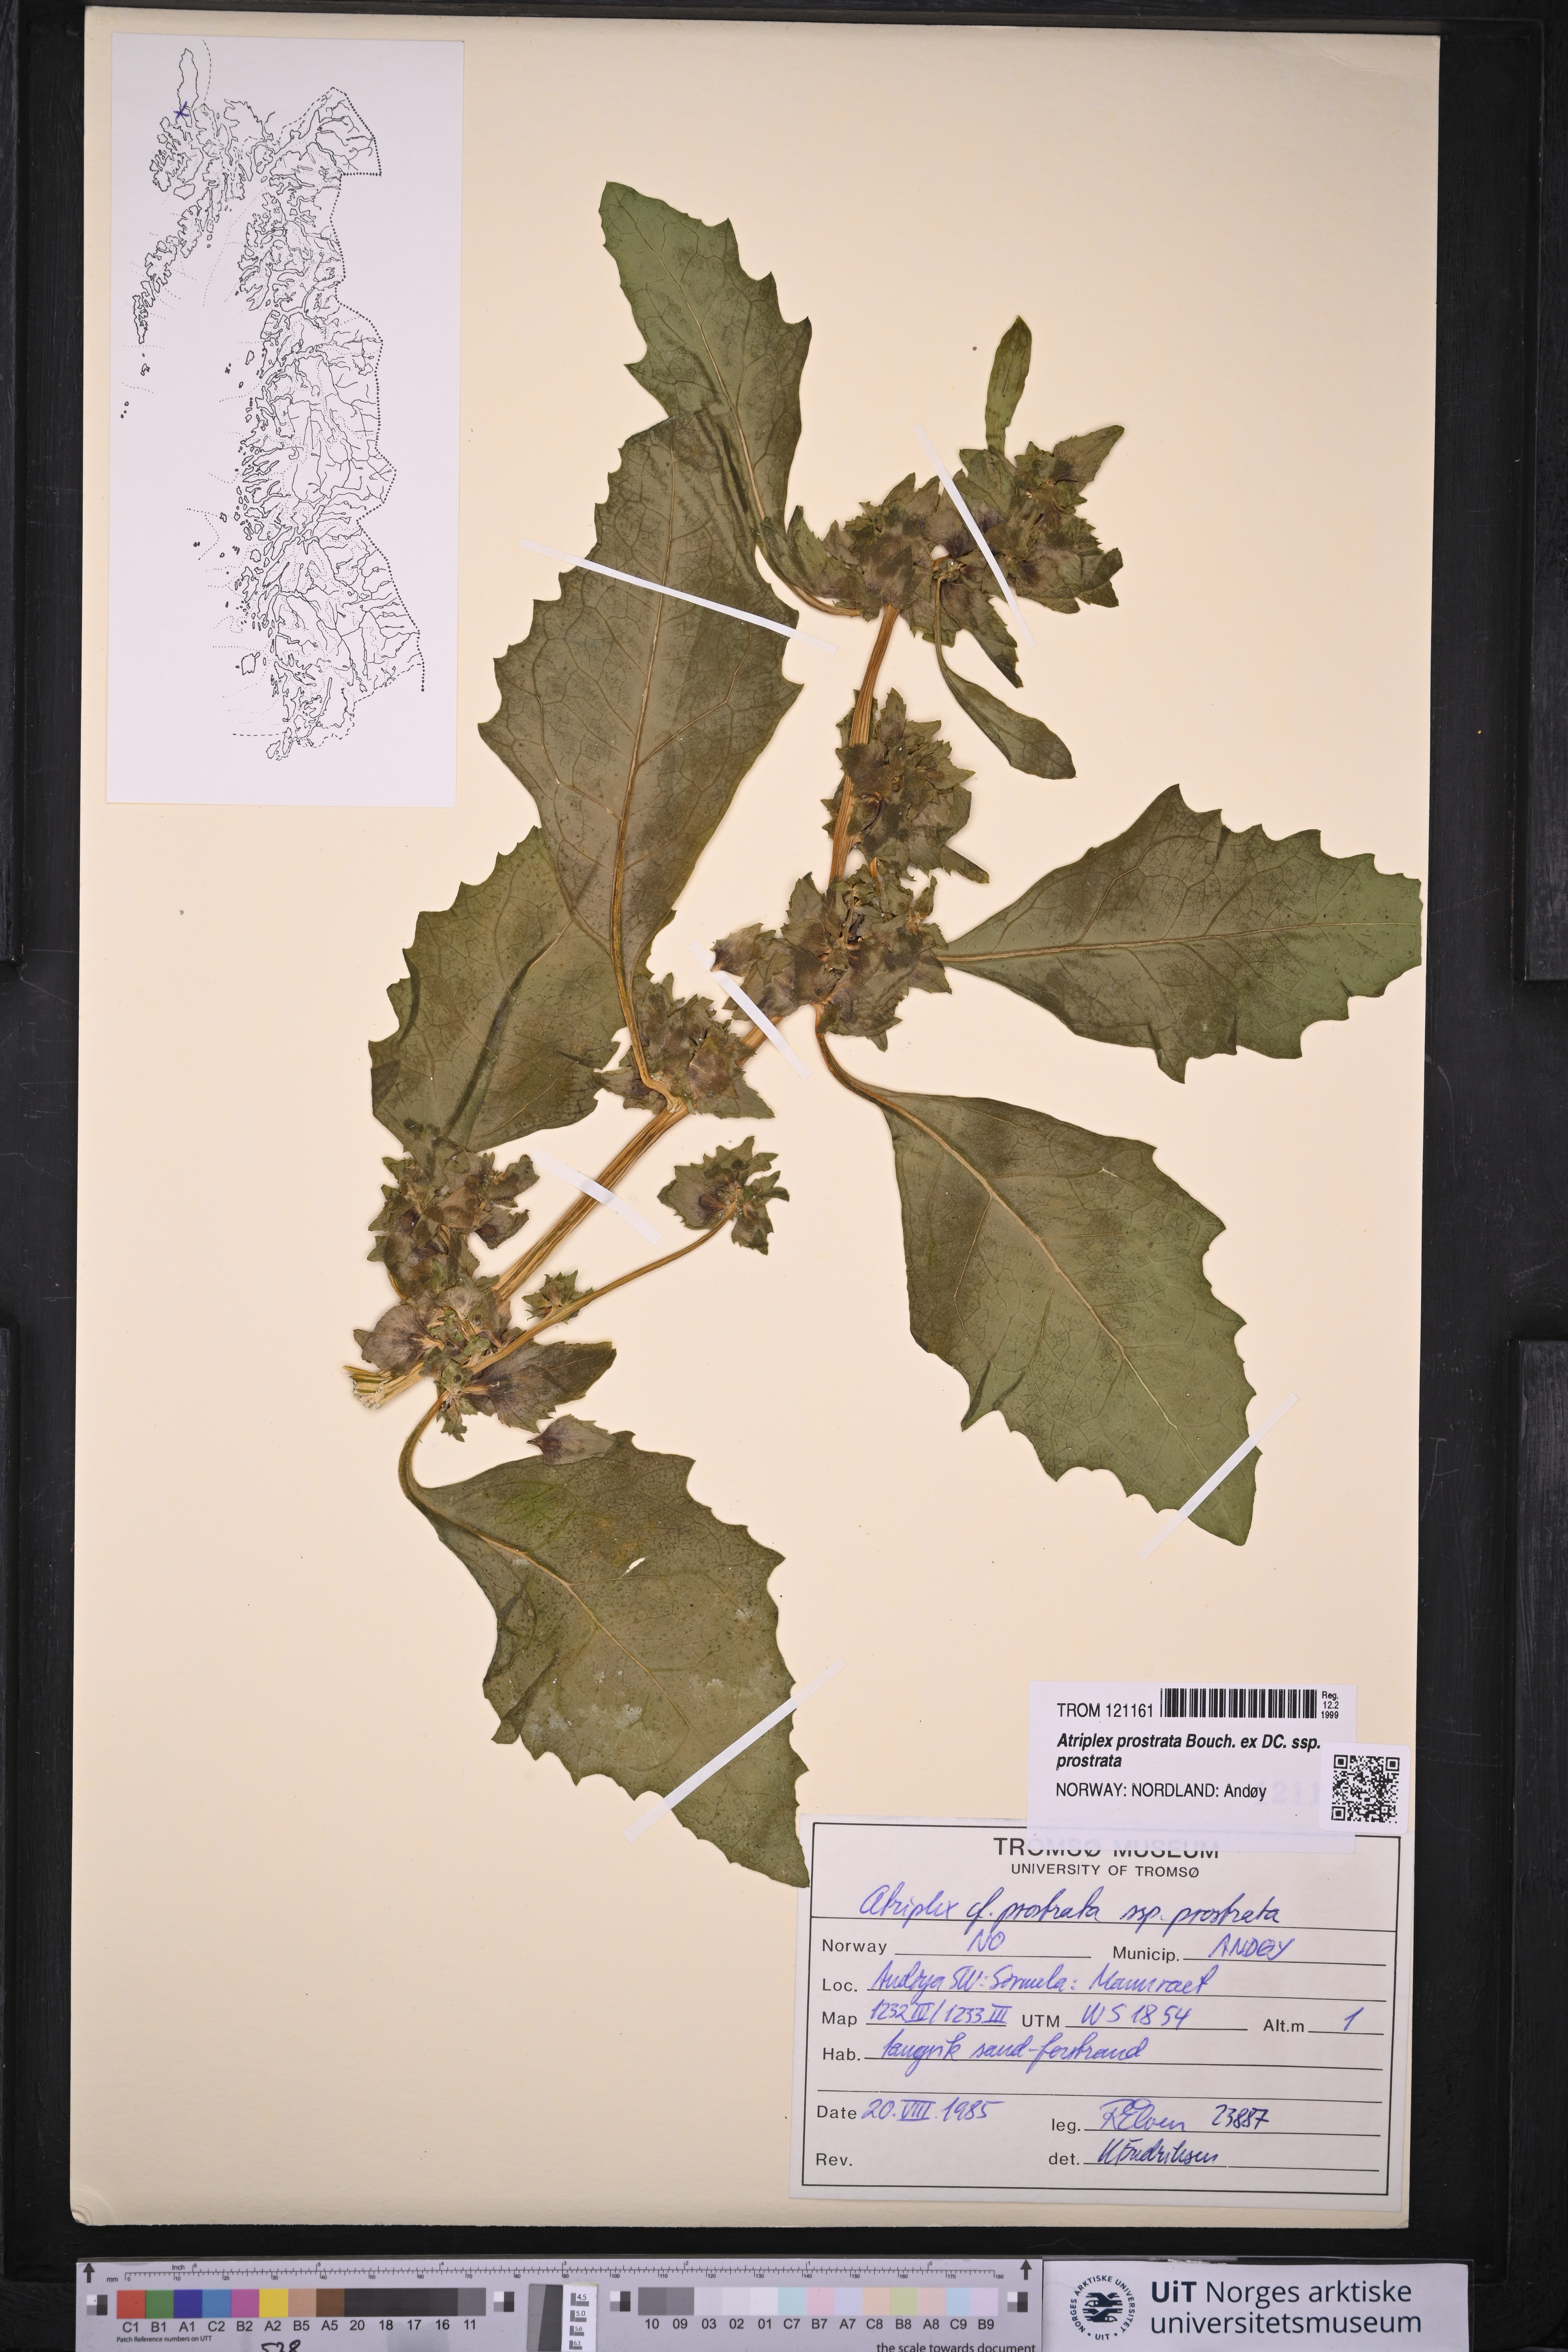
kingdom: Plantae
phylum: Tracheophyta
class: Magnoliopsida
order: Caryophyllales
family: Amaranthaceae
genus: Atriplex
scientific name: Atriplex prostrata
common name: Spear-leaved orache
